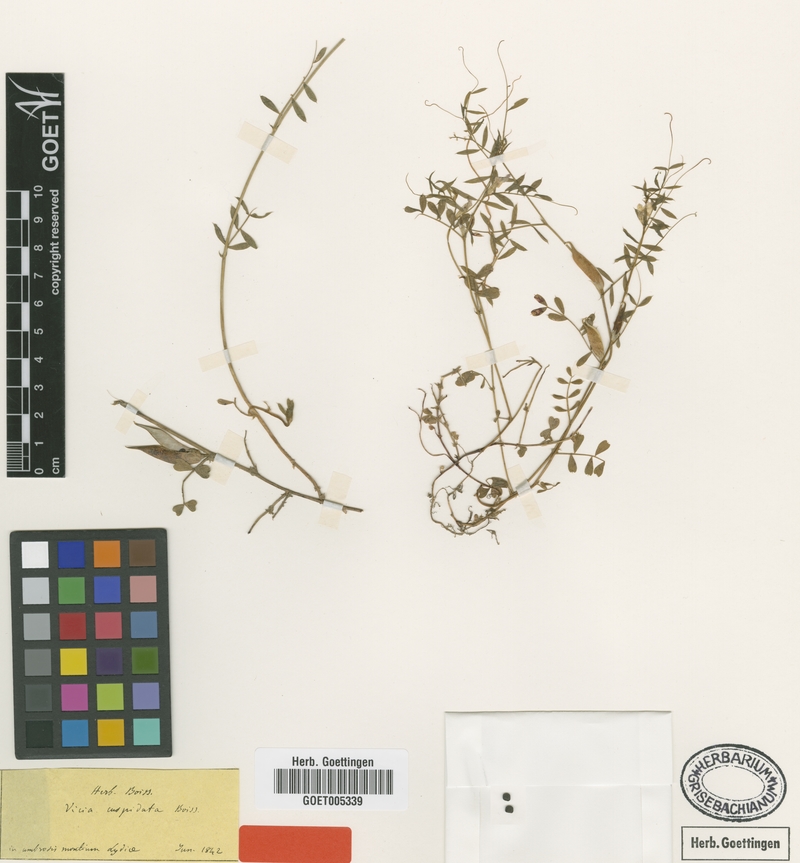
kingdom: Plantae
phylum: Tracheophyta
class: Magnoliopsida
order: Fabales
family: Fabaceae
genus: Vicia
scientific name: Vicia cuspidata
